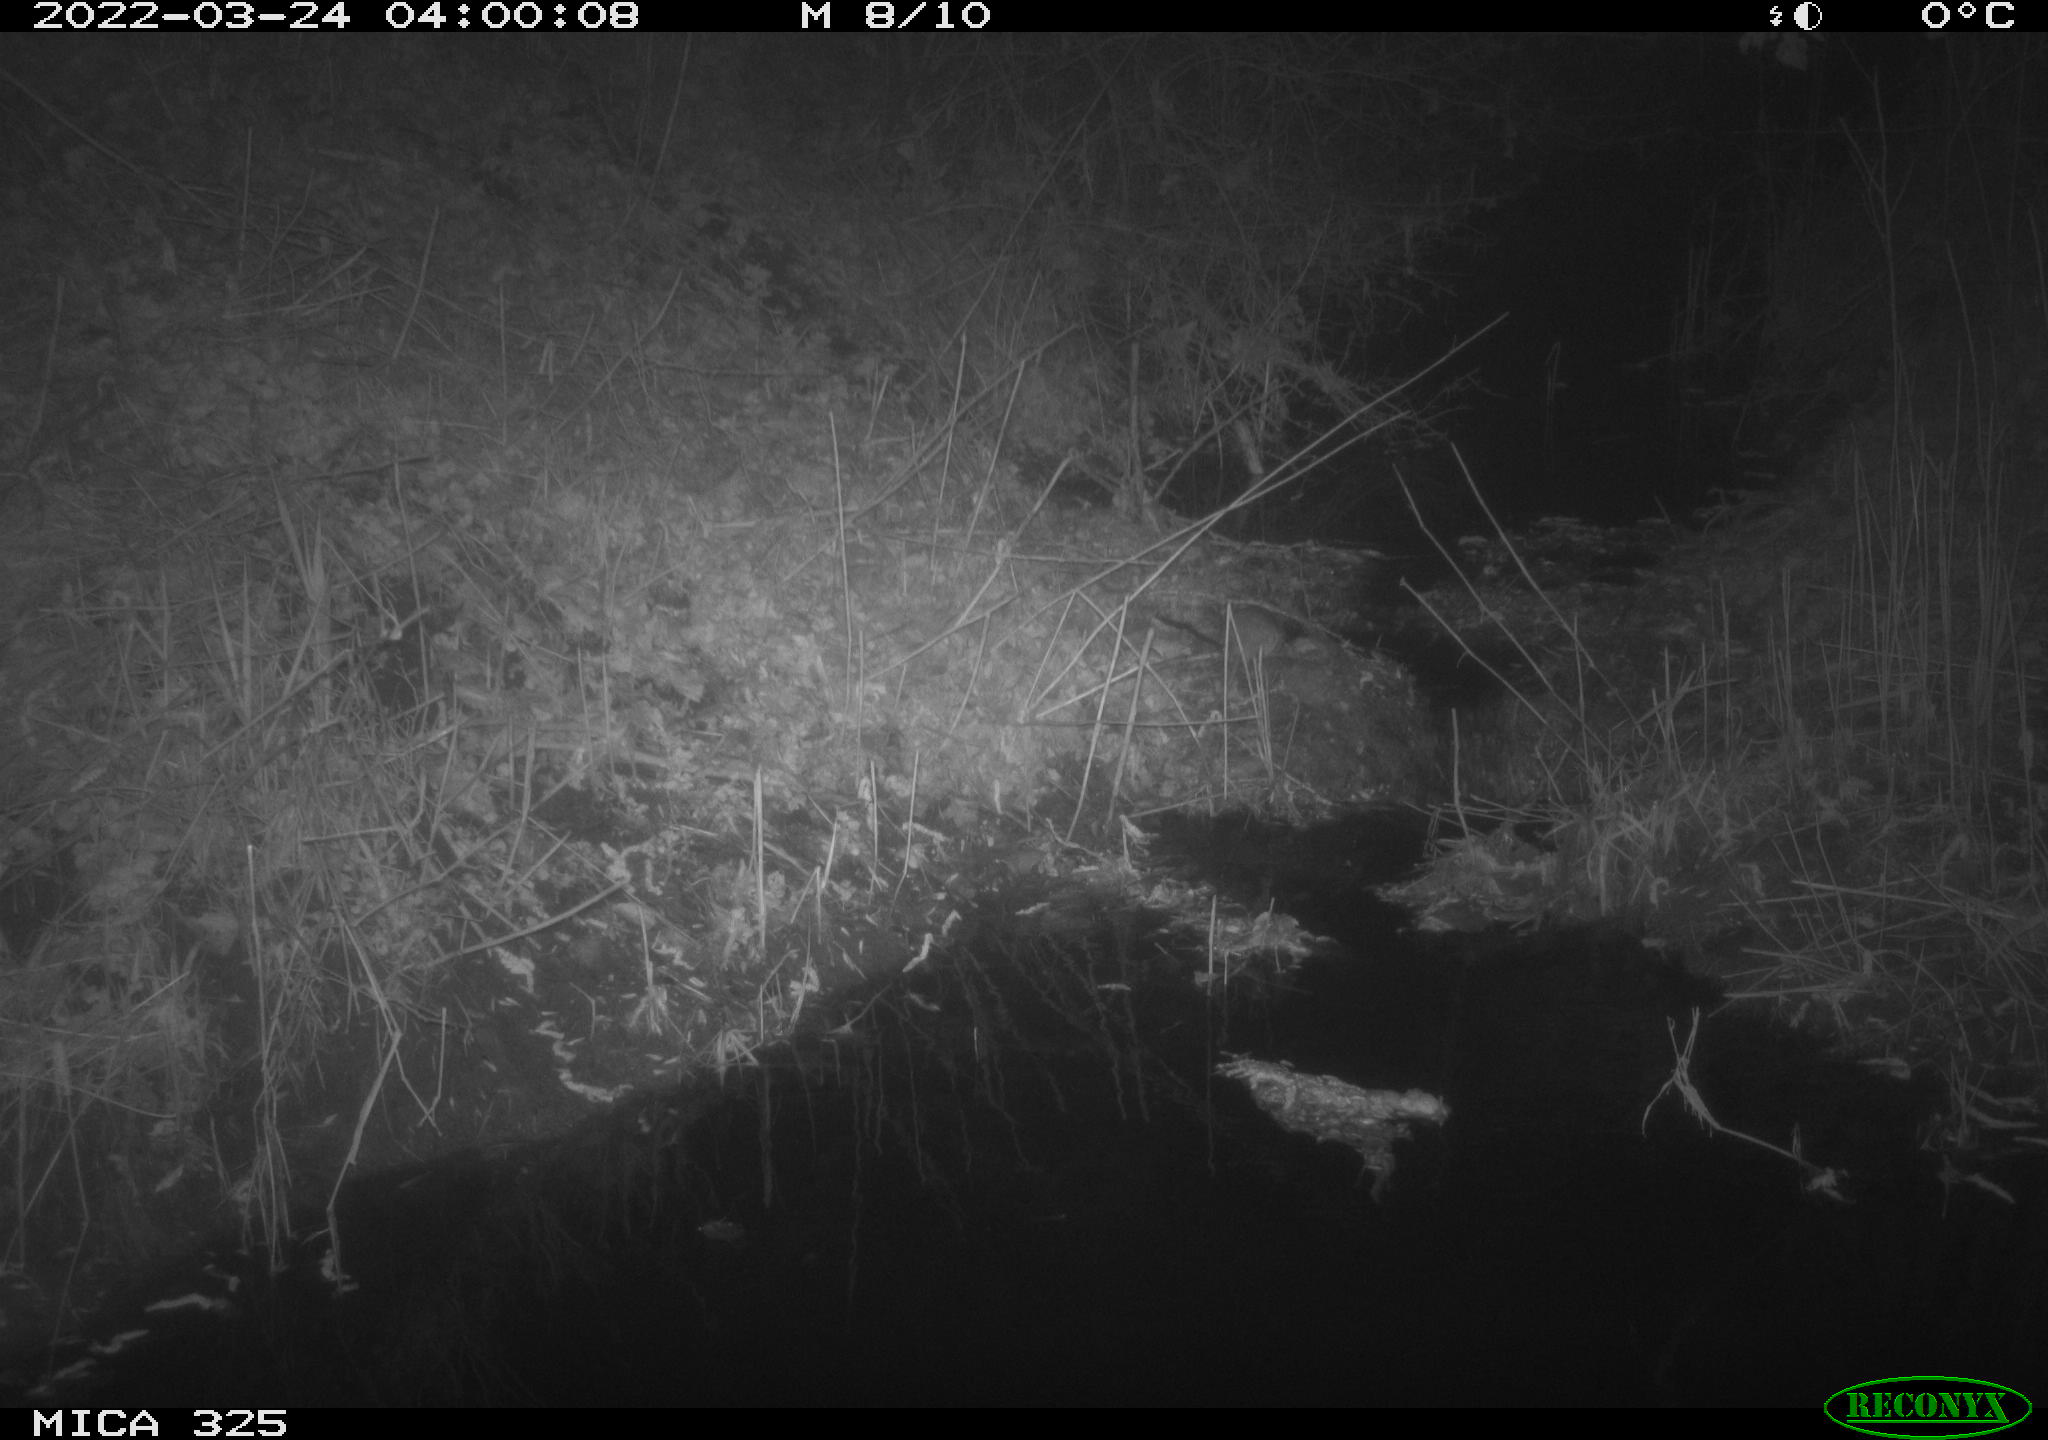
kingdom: Animalia
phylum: Chordata
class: Mammalia
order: Rodentia
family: Muridae
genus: Rattus
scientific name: Rattus norvegicus
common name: Brown rat
